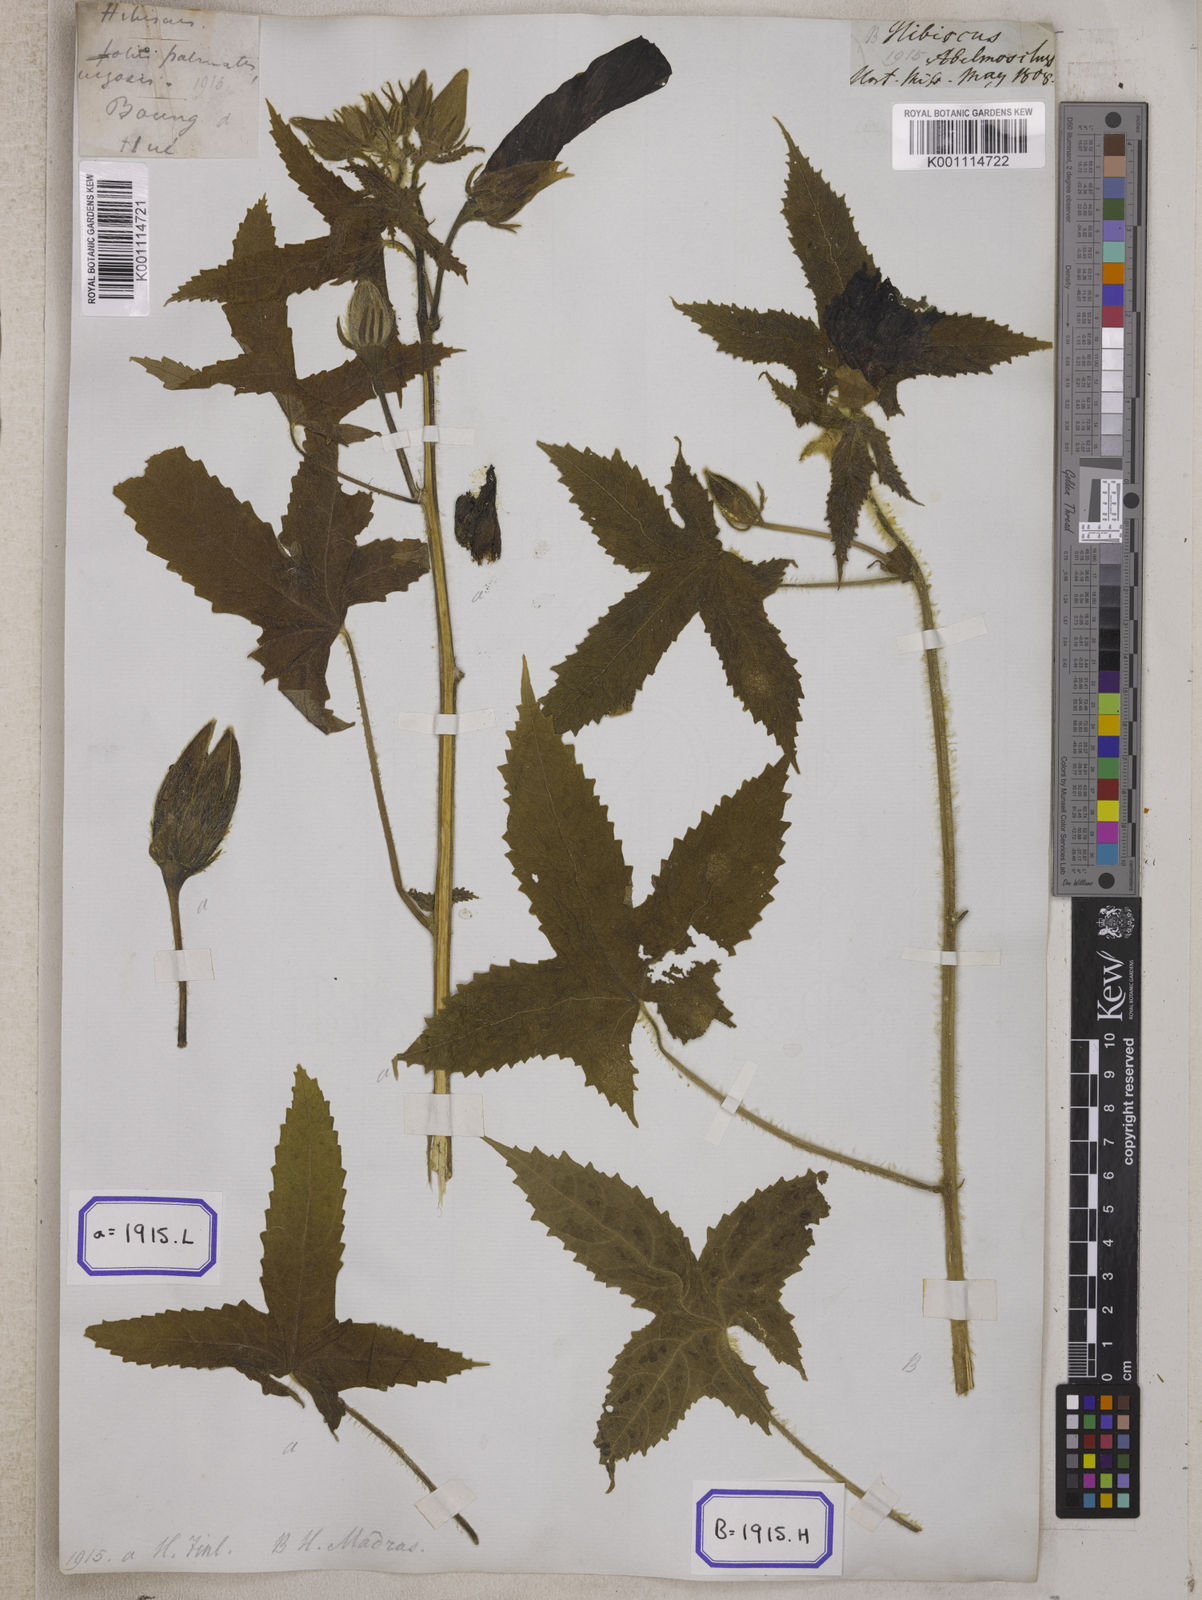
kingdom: Plantae
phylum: Tracheophyta
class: Magnoliopsida
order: Malvales
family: Malvaceae
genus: Bamia
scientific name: Bamia
